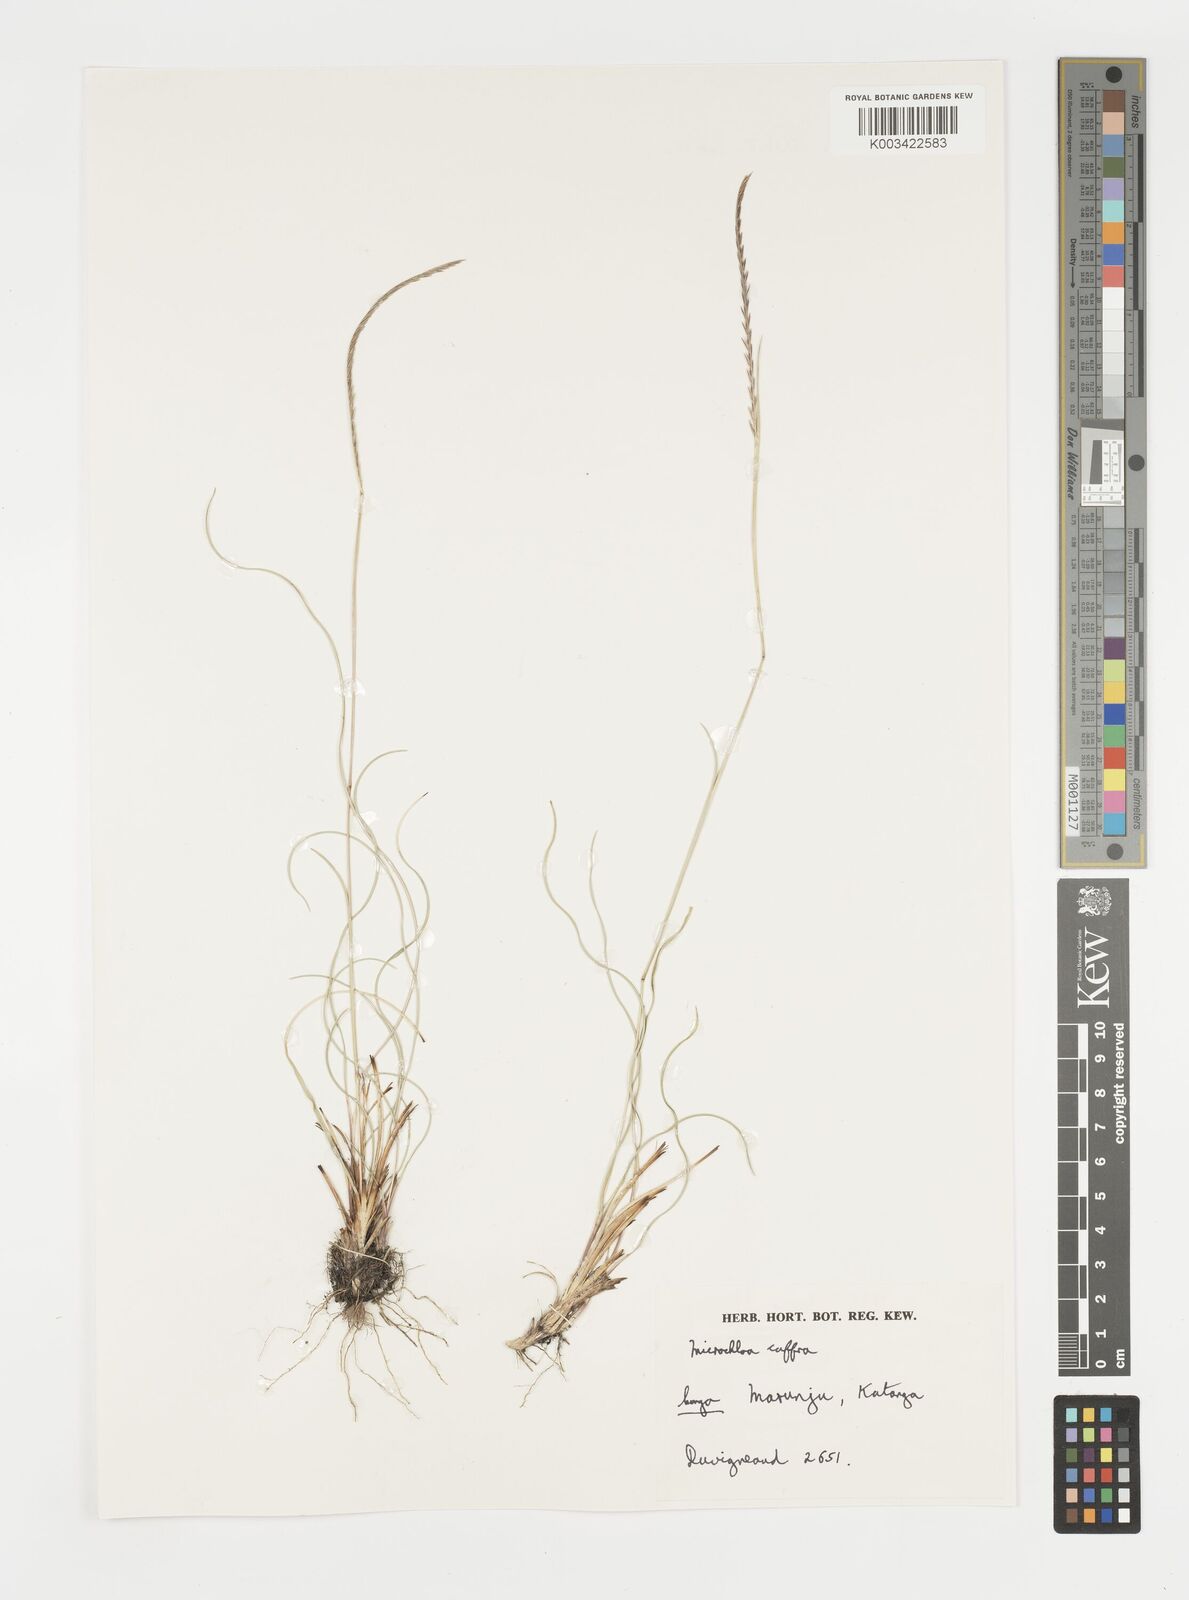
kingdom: Plantae
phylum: Tracheophyta
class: Liliopsida
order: Poales
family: Poaceae
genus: Microchloa
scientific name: Microchloa caffra
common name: Pincushion grass
